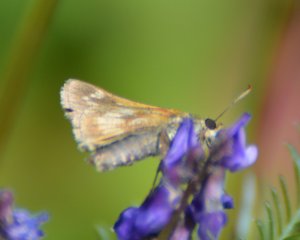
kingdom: Animalia
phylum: Arthropoda
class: Insecta
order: Lepidoptera
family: Hesperiidae
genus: Polites
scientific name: Polites coras
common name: Peck's Skipper
